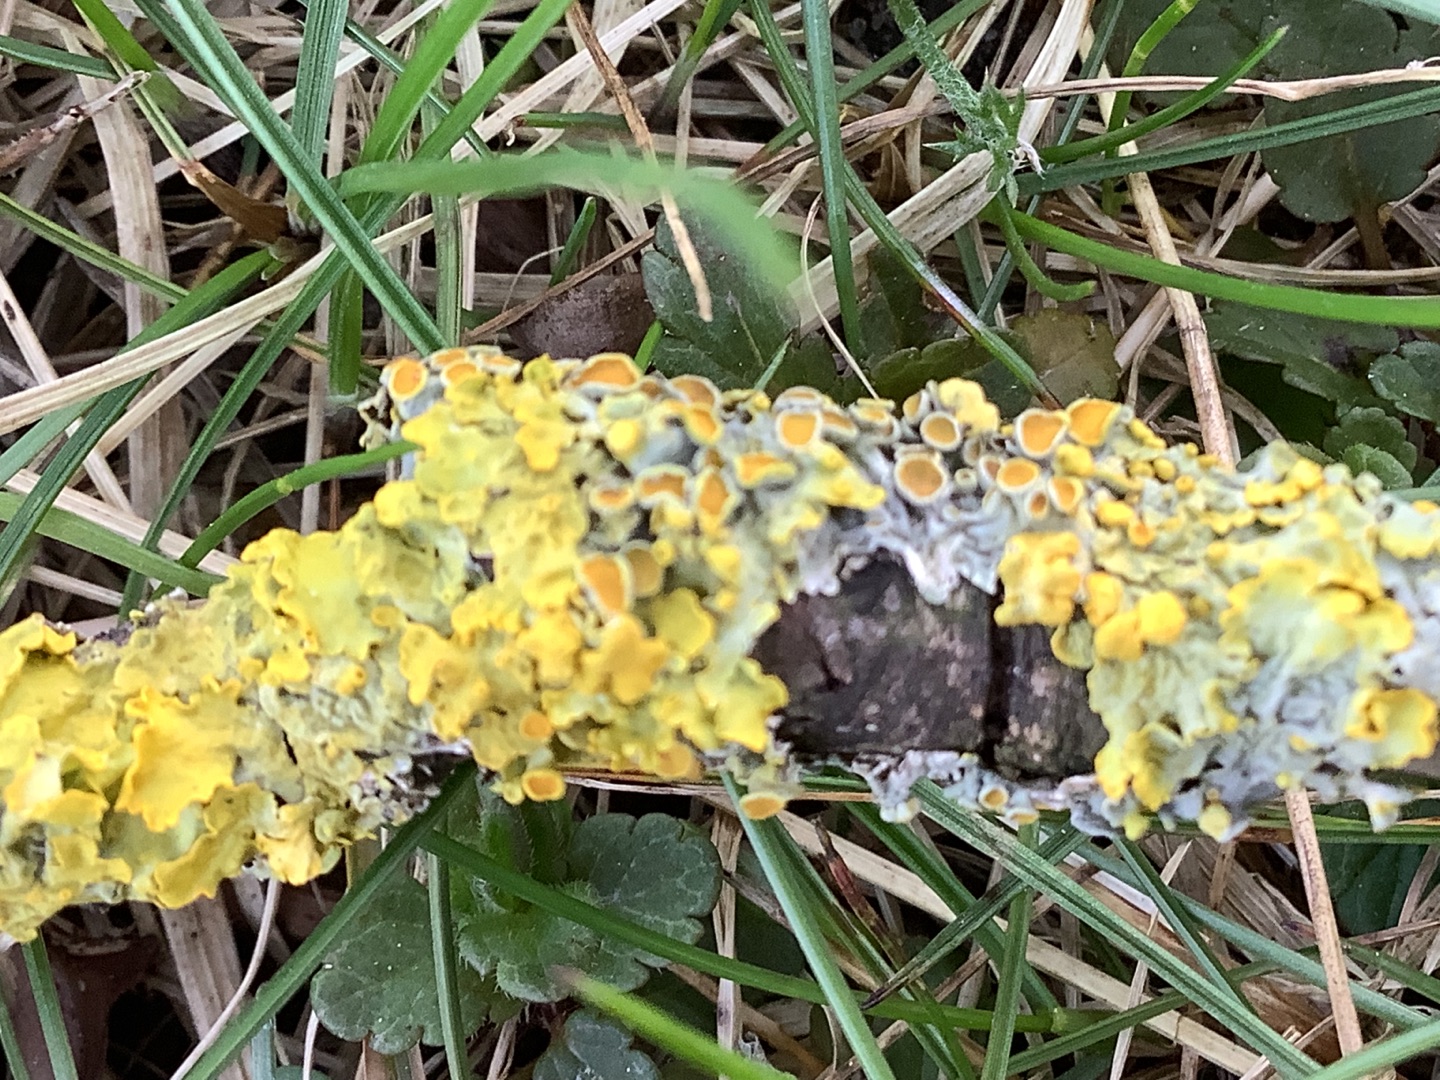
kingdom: Fungi
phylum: Ascomycota
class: Lecanoromycetes
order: Teloschistales
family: Teloschistaceae
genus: Xanthoria
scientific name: Xanthoria parietina
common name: Almindelig væggelav
